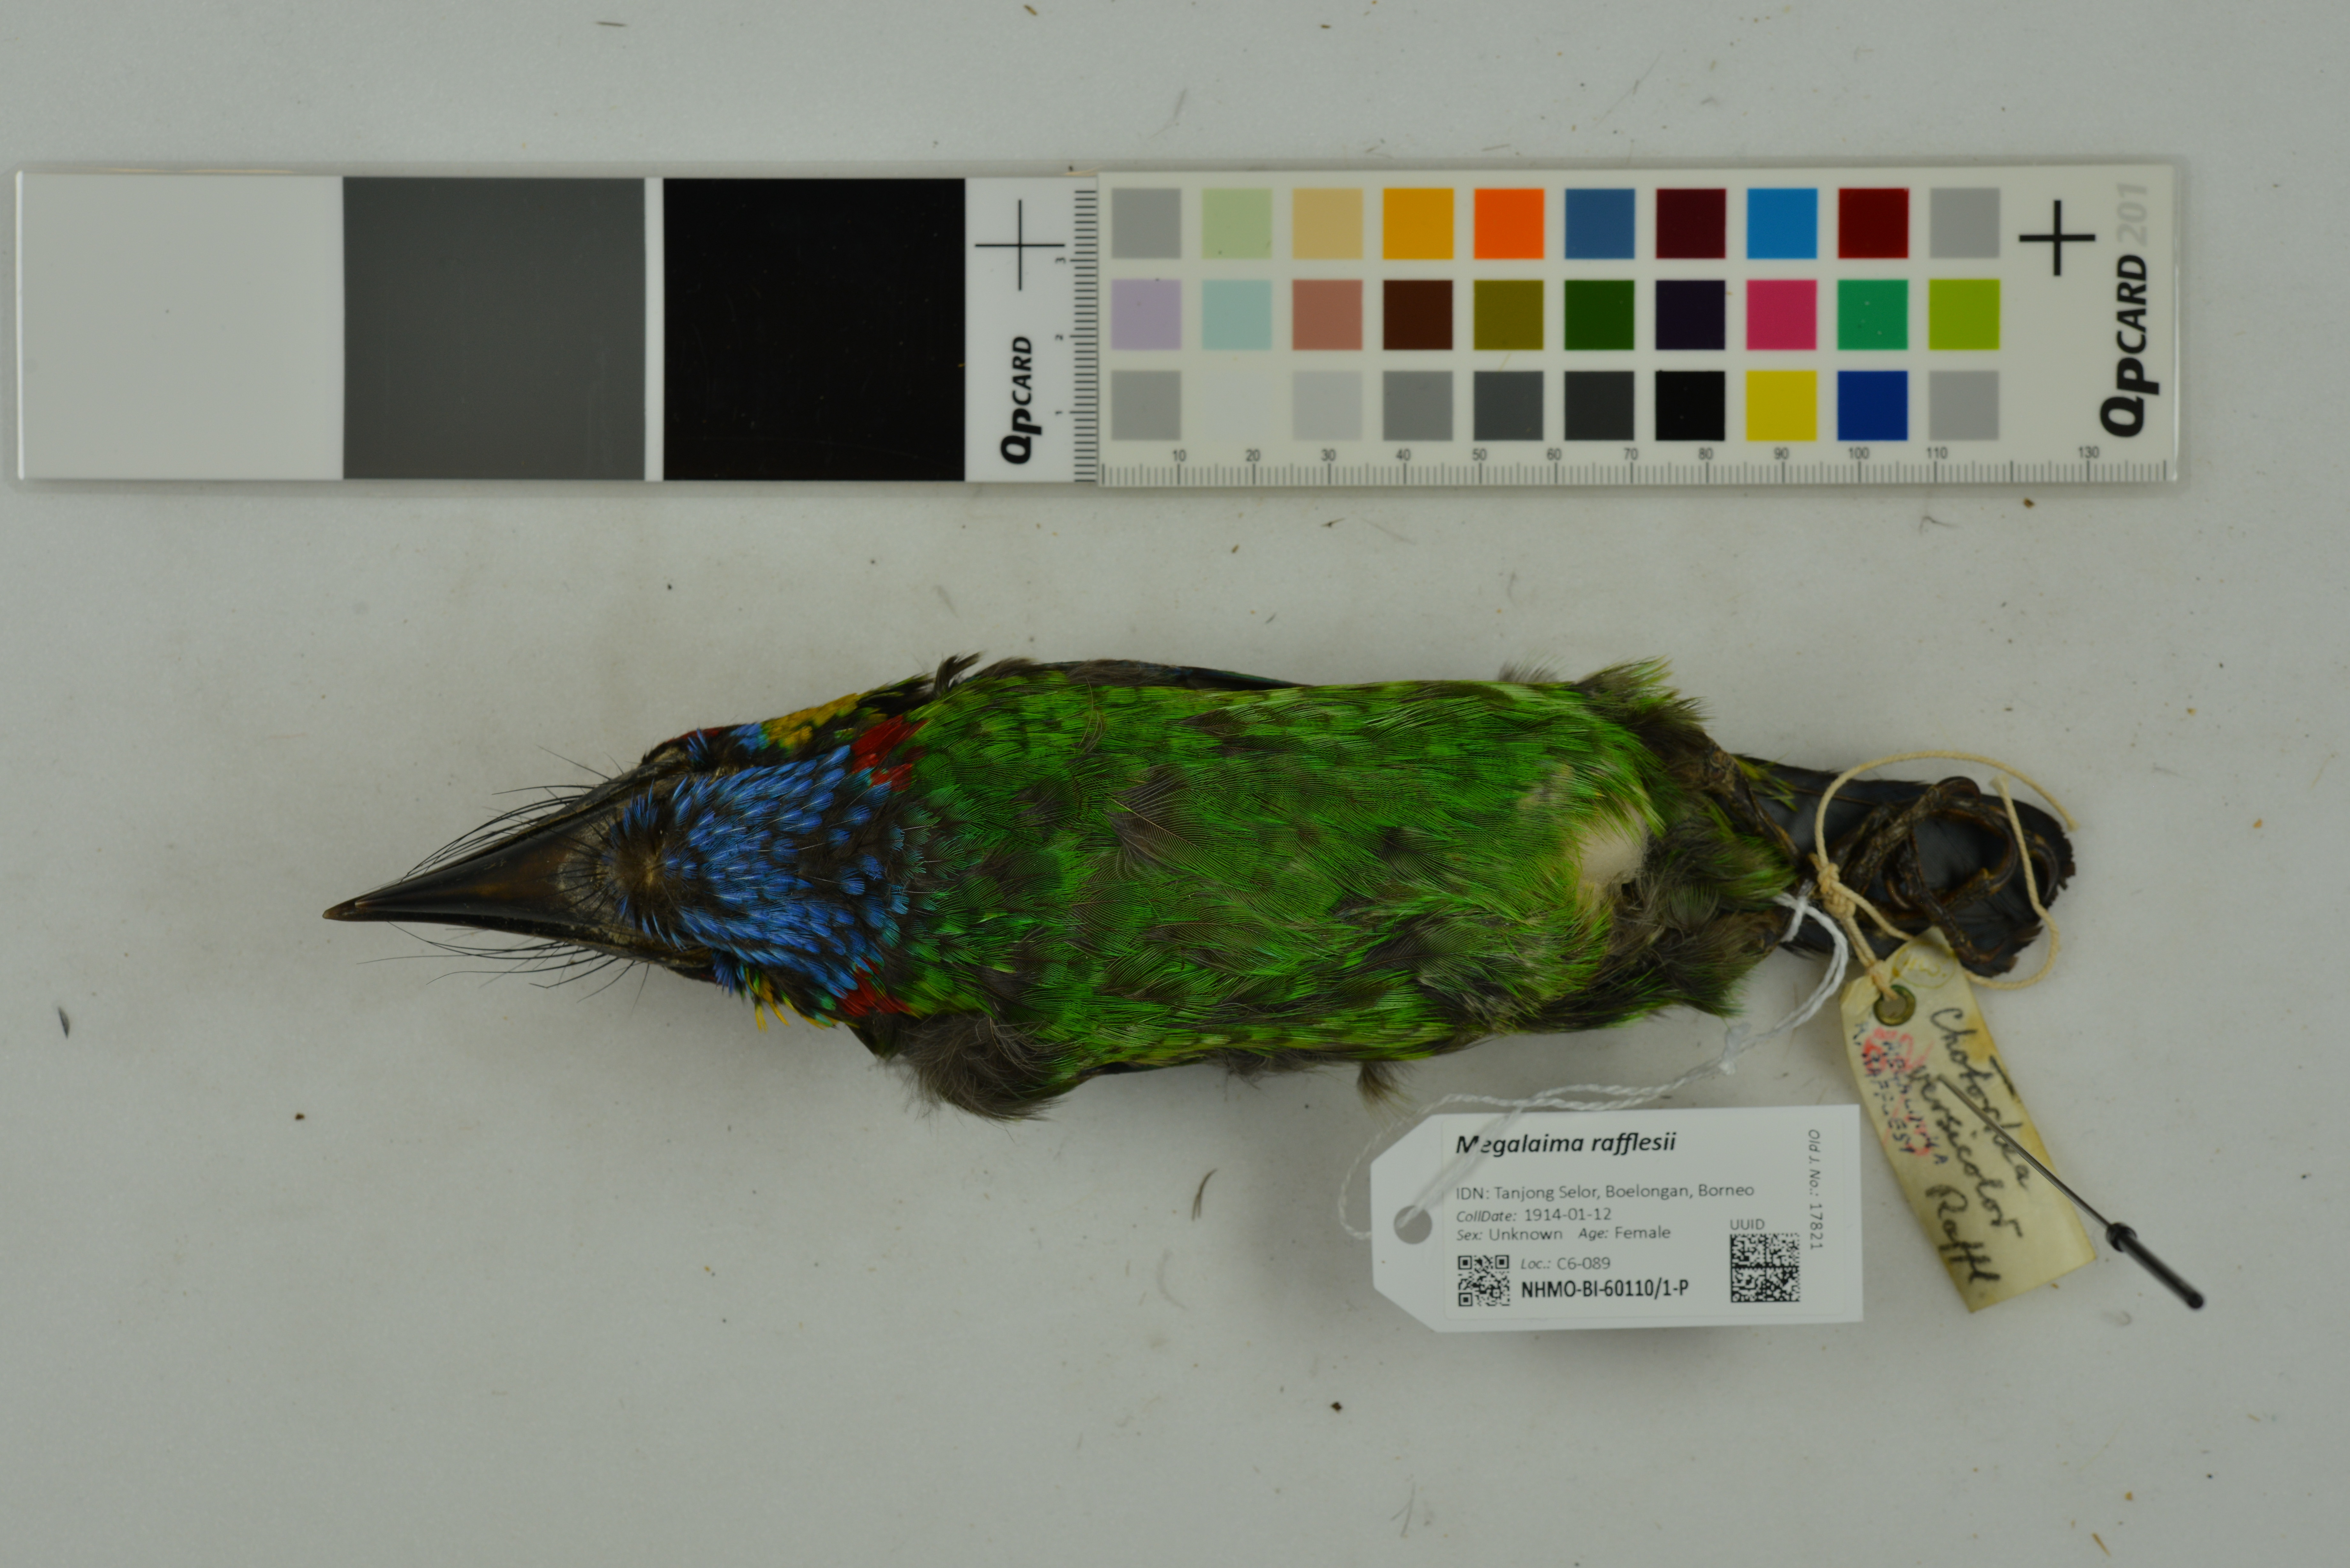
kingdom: Animalia
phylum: Chordata
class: Aves
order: Piciformes
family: Megalaimidae
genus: Psilopogon
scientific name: Psilopogon rafflesii
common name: Red-crowned barbet
